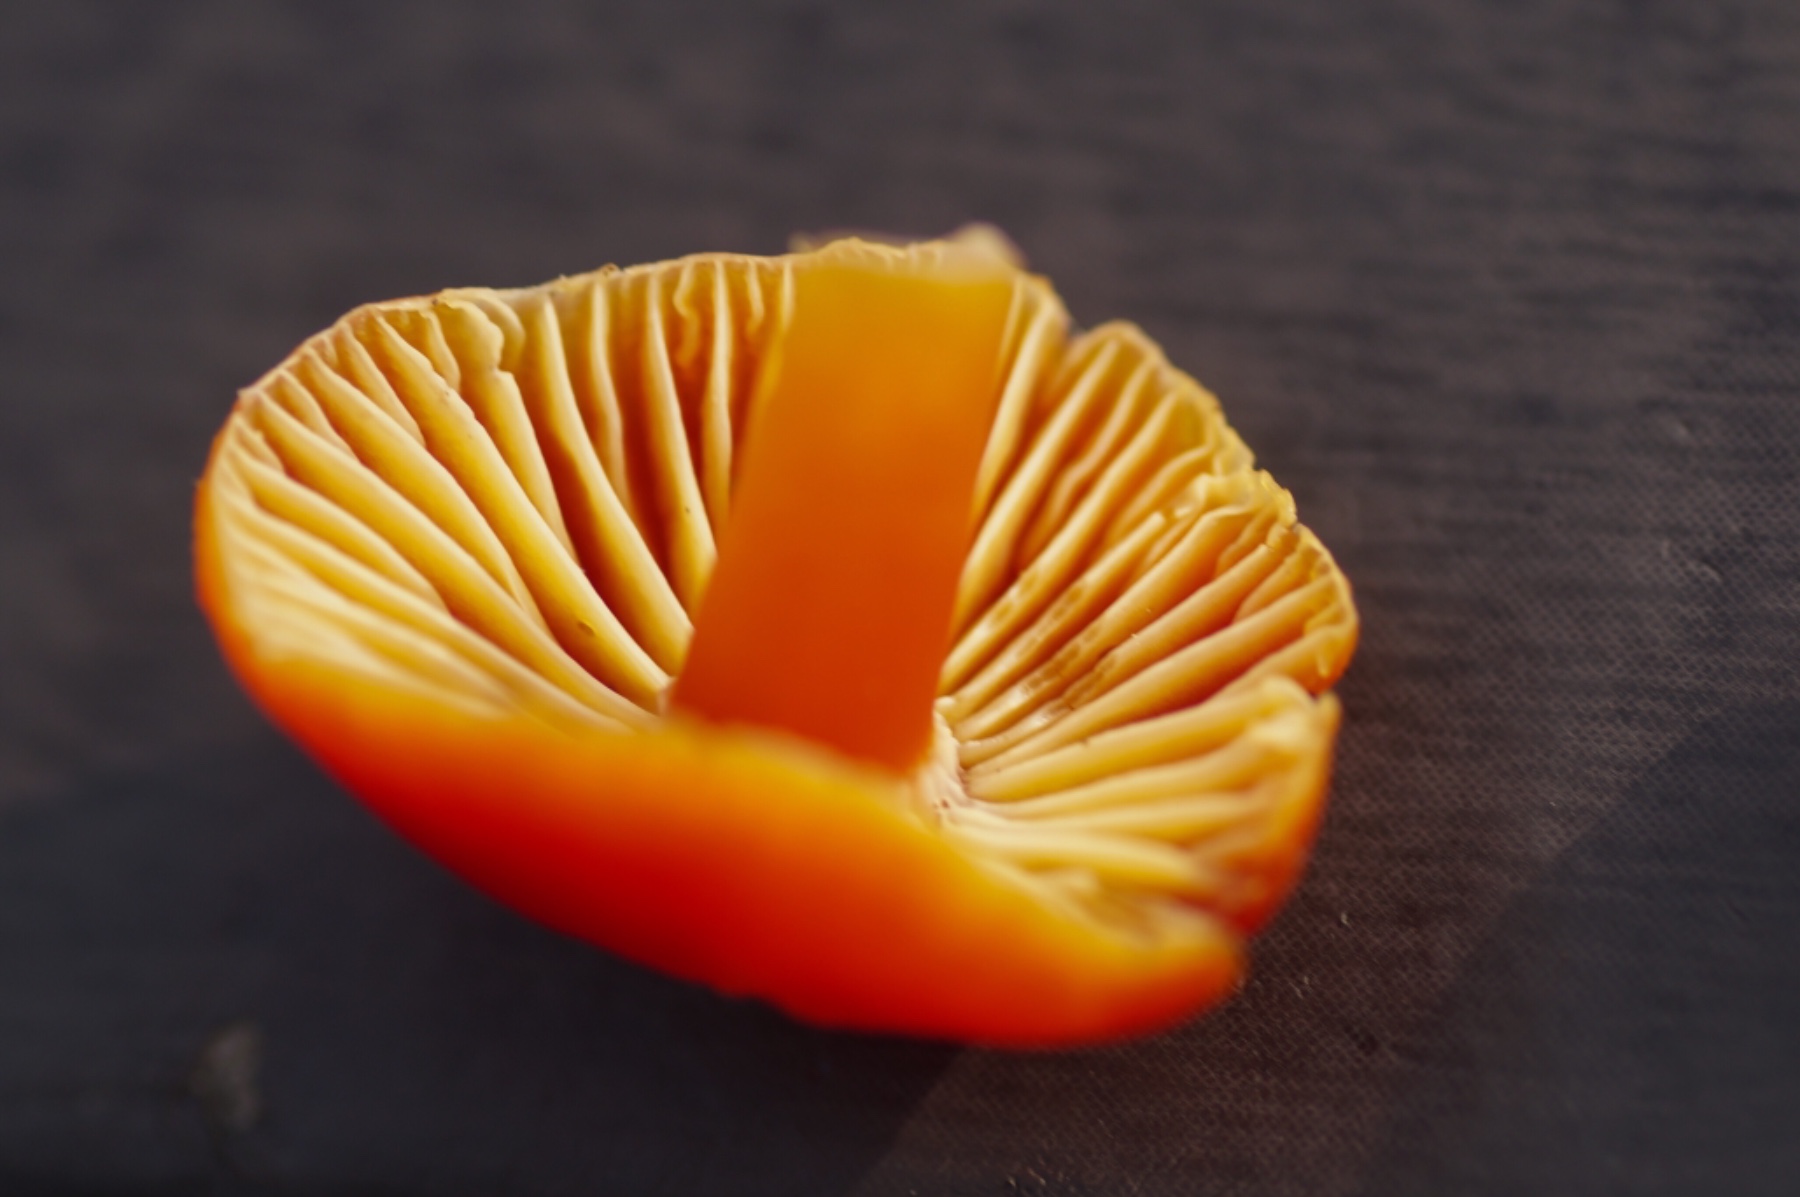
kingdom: Fungi
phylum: Basidiomycota
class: Agaricomycetes
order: Agaricales
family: Hygrophoraceae
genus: Hygrocybe
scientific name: Hygrocybe coccinea
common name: cinnober-vokshat
